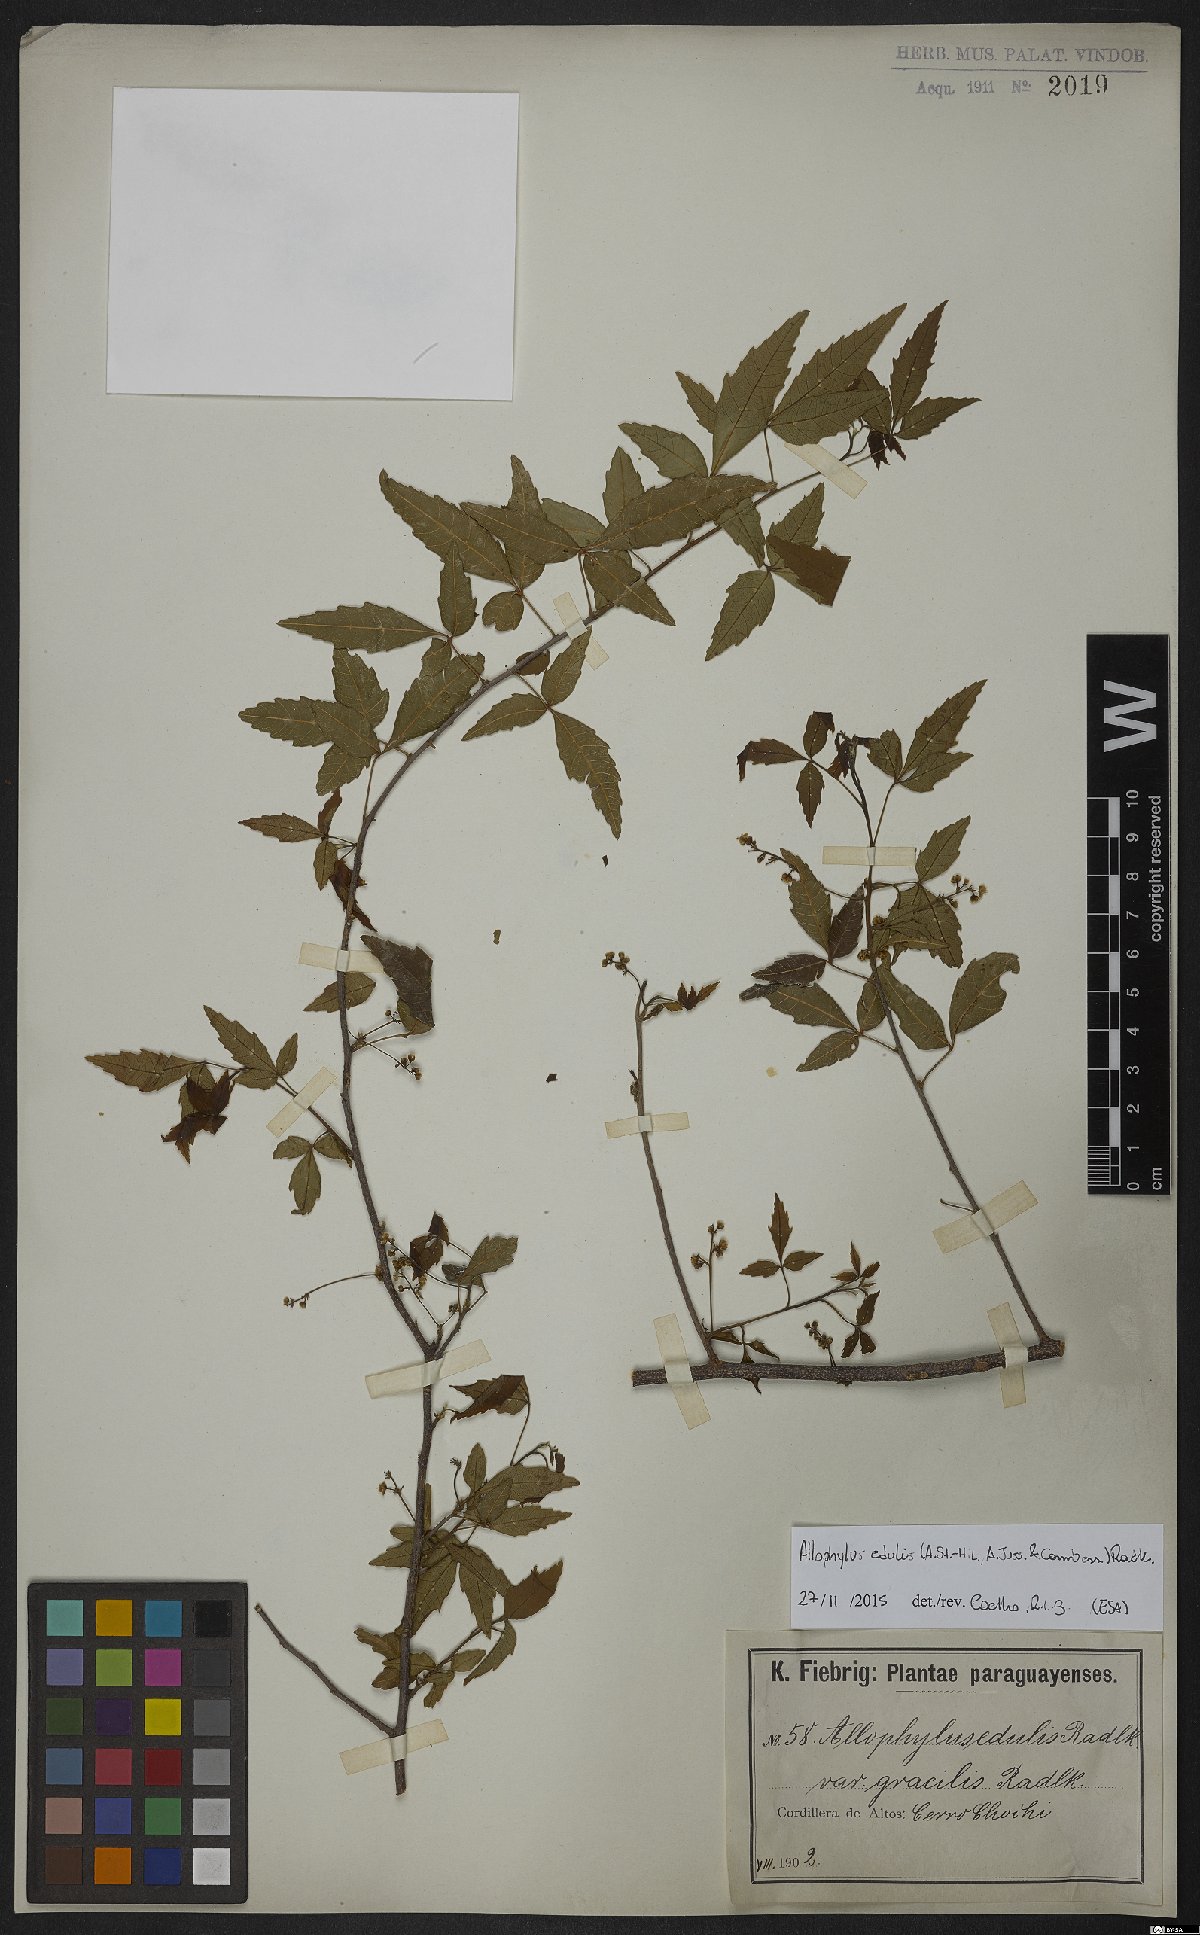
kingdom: Plantae
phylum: Tracheophyta
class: Magnoliopsida
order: Sapindales
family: Sapindaceae
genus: Allophylus
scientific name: Allophylus edulis
